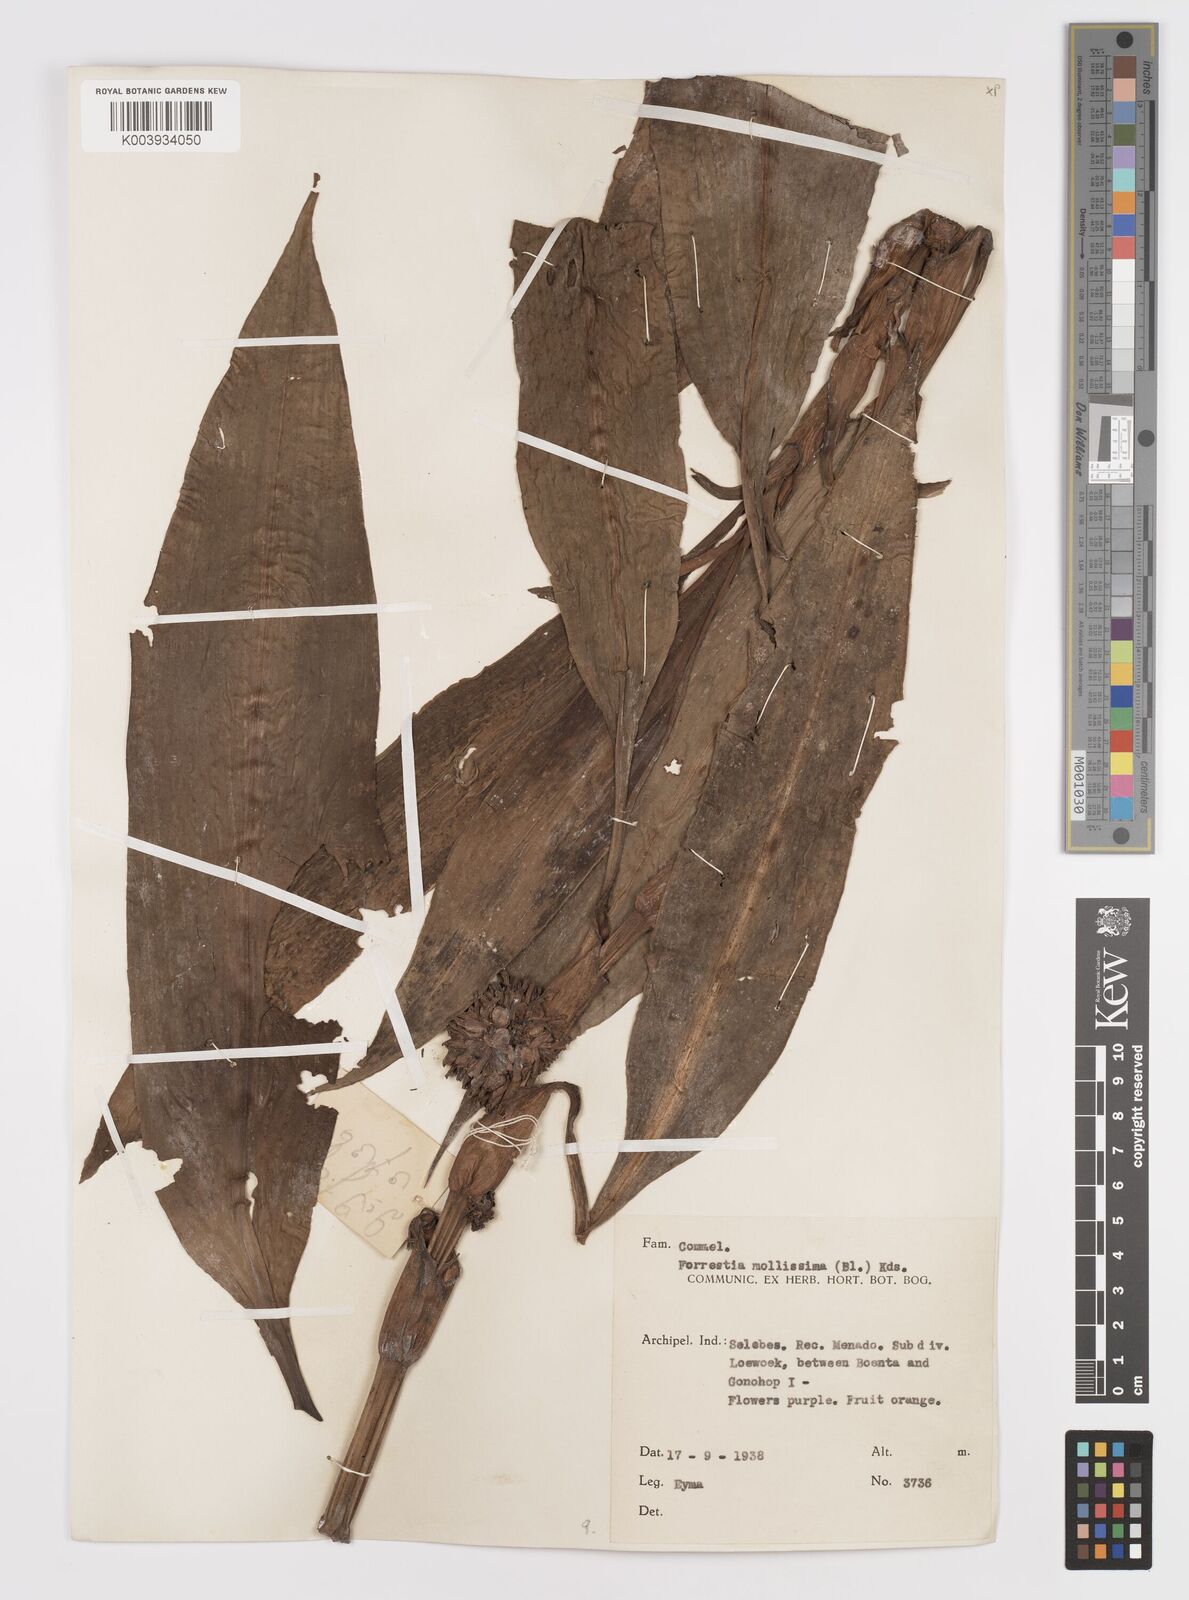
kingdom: Plantae
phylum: Tracheophyta
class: Liliopsida
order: Commelinales
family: Commelinaceae
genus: Amischotolype
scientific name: Amischotolype mollissima
